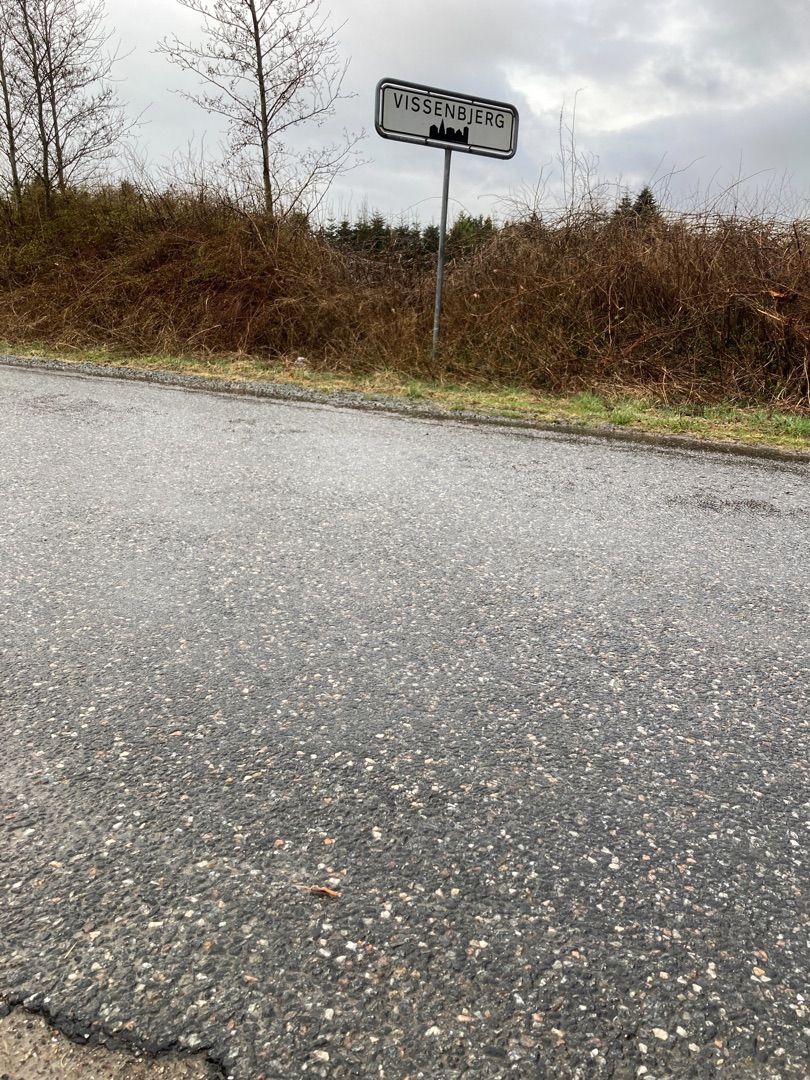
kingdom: Animalia
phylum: Chordata
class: Amphibia
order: Caudata
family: Salamandridae
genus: Lissotriton
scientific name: Lissotriton vulgaris
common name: Lille vandsalamander
